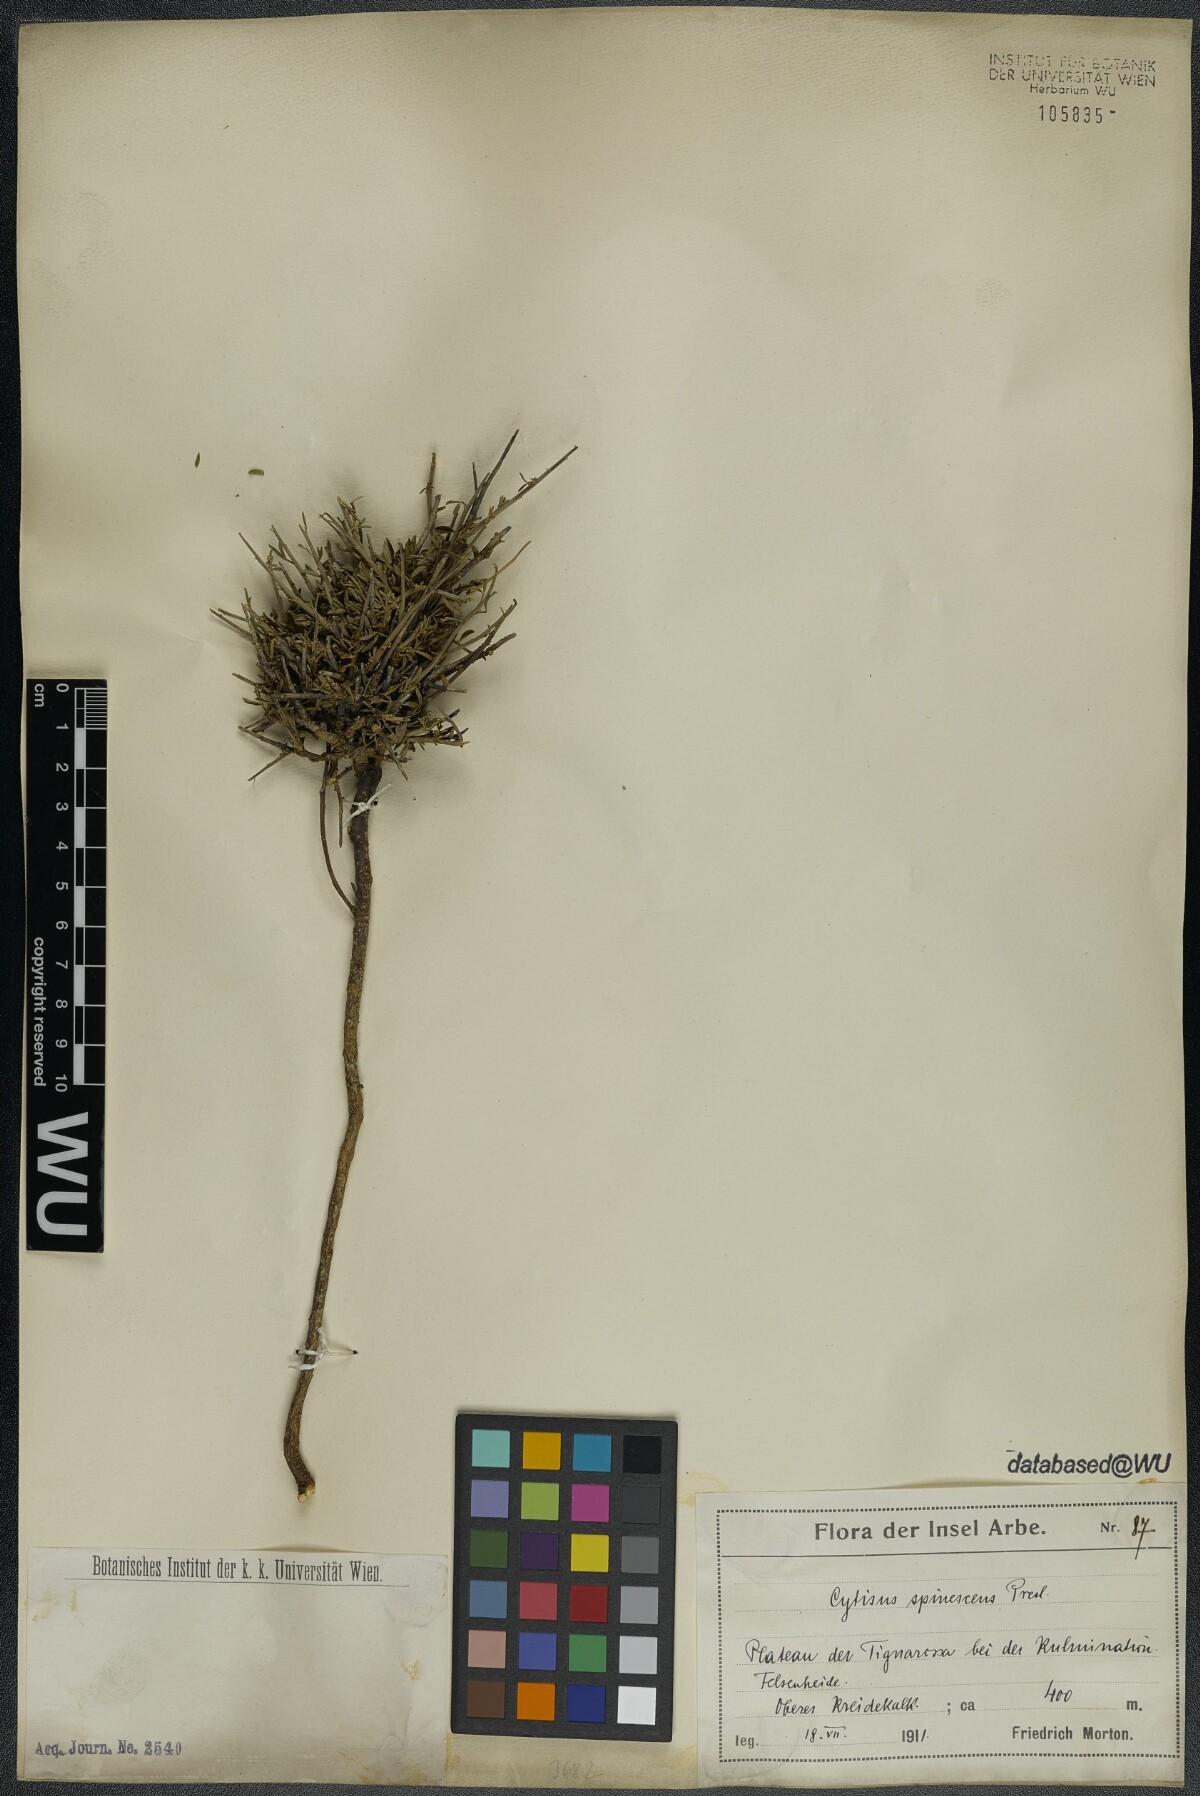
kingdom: Plantae
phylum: Tracheophyta
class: Magnoliopsida
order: Fabales
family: Fabaceae
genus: Chamaecytisus
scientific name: Chamaecytisus spinescens
